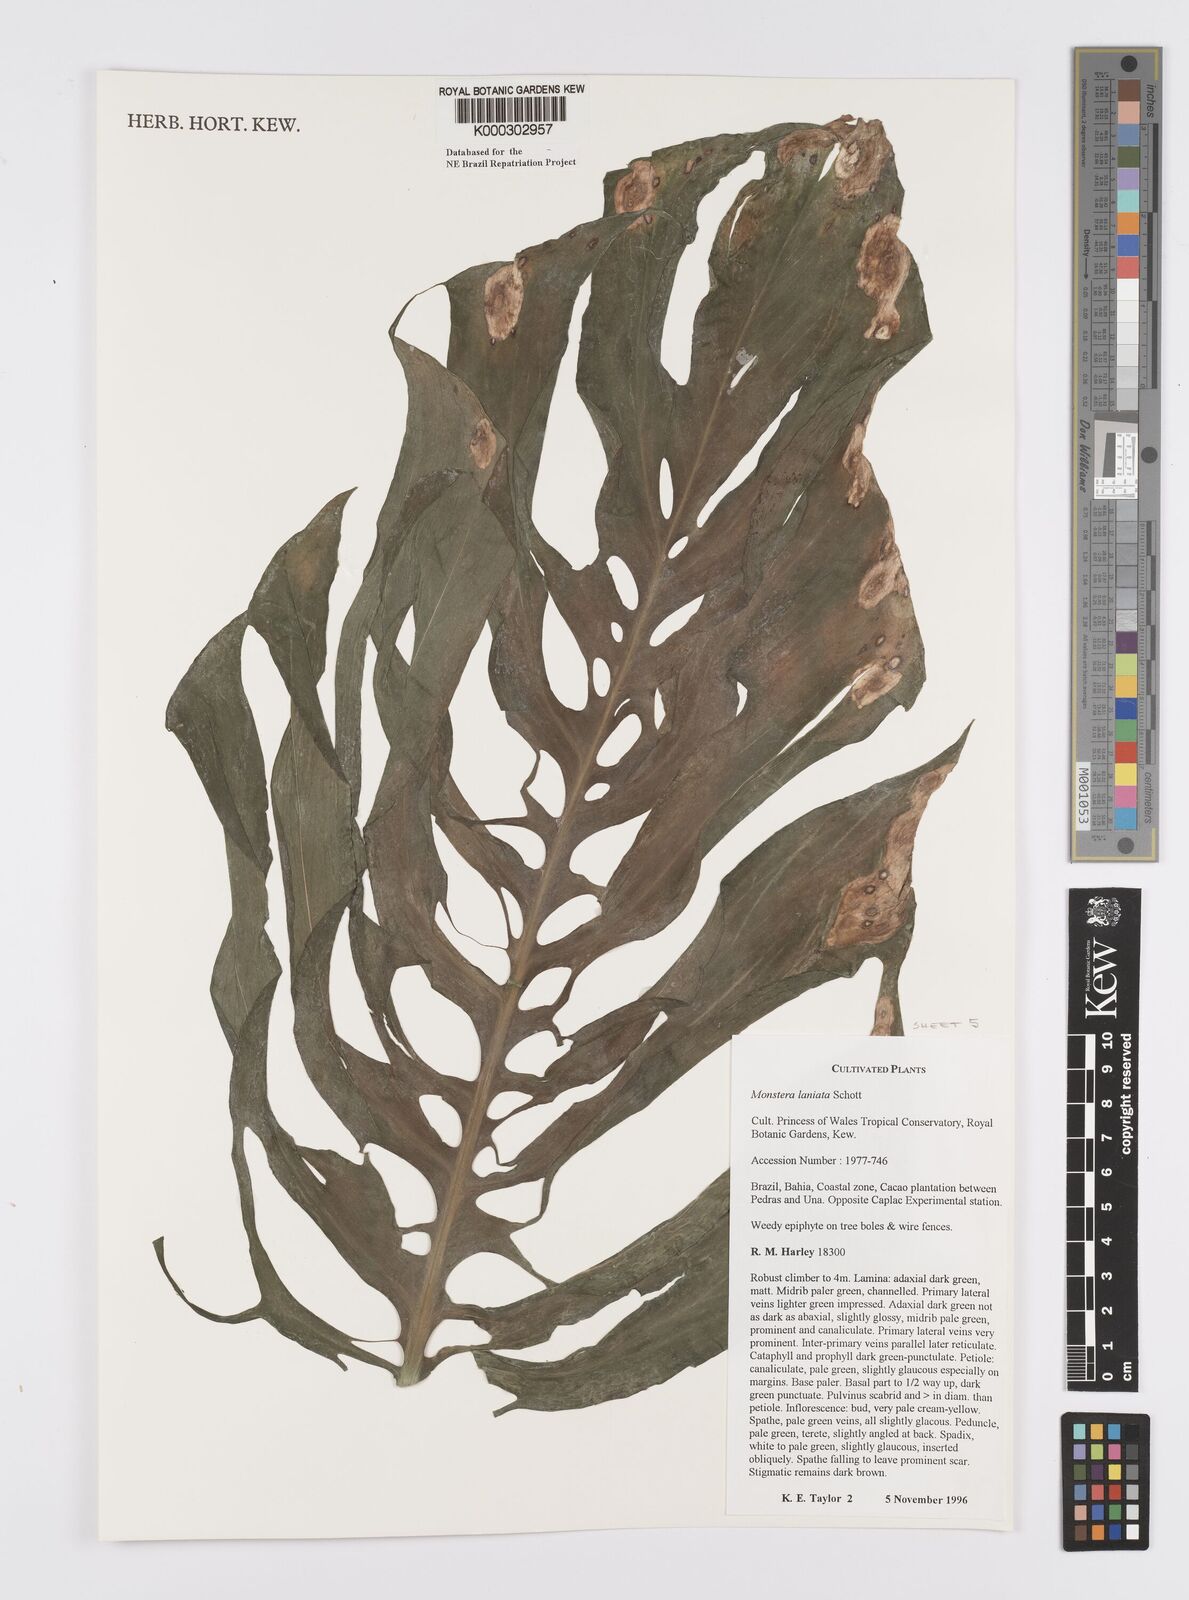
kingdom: Plantae
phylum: Tracheophyta
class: Liliopsida
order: Alismatales
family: Araceae
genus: Monstera
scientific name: Monstera adansonii
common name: Tarovine
